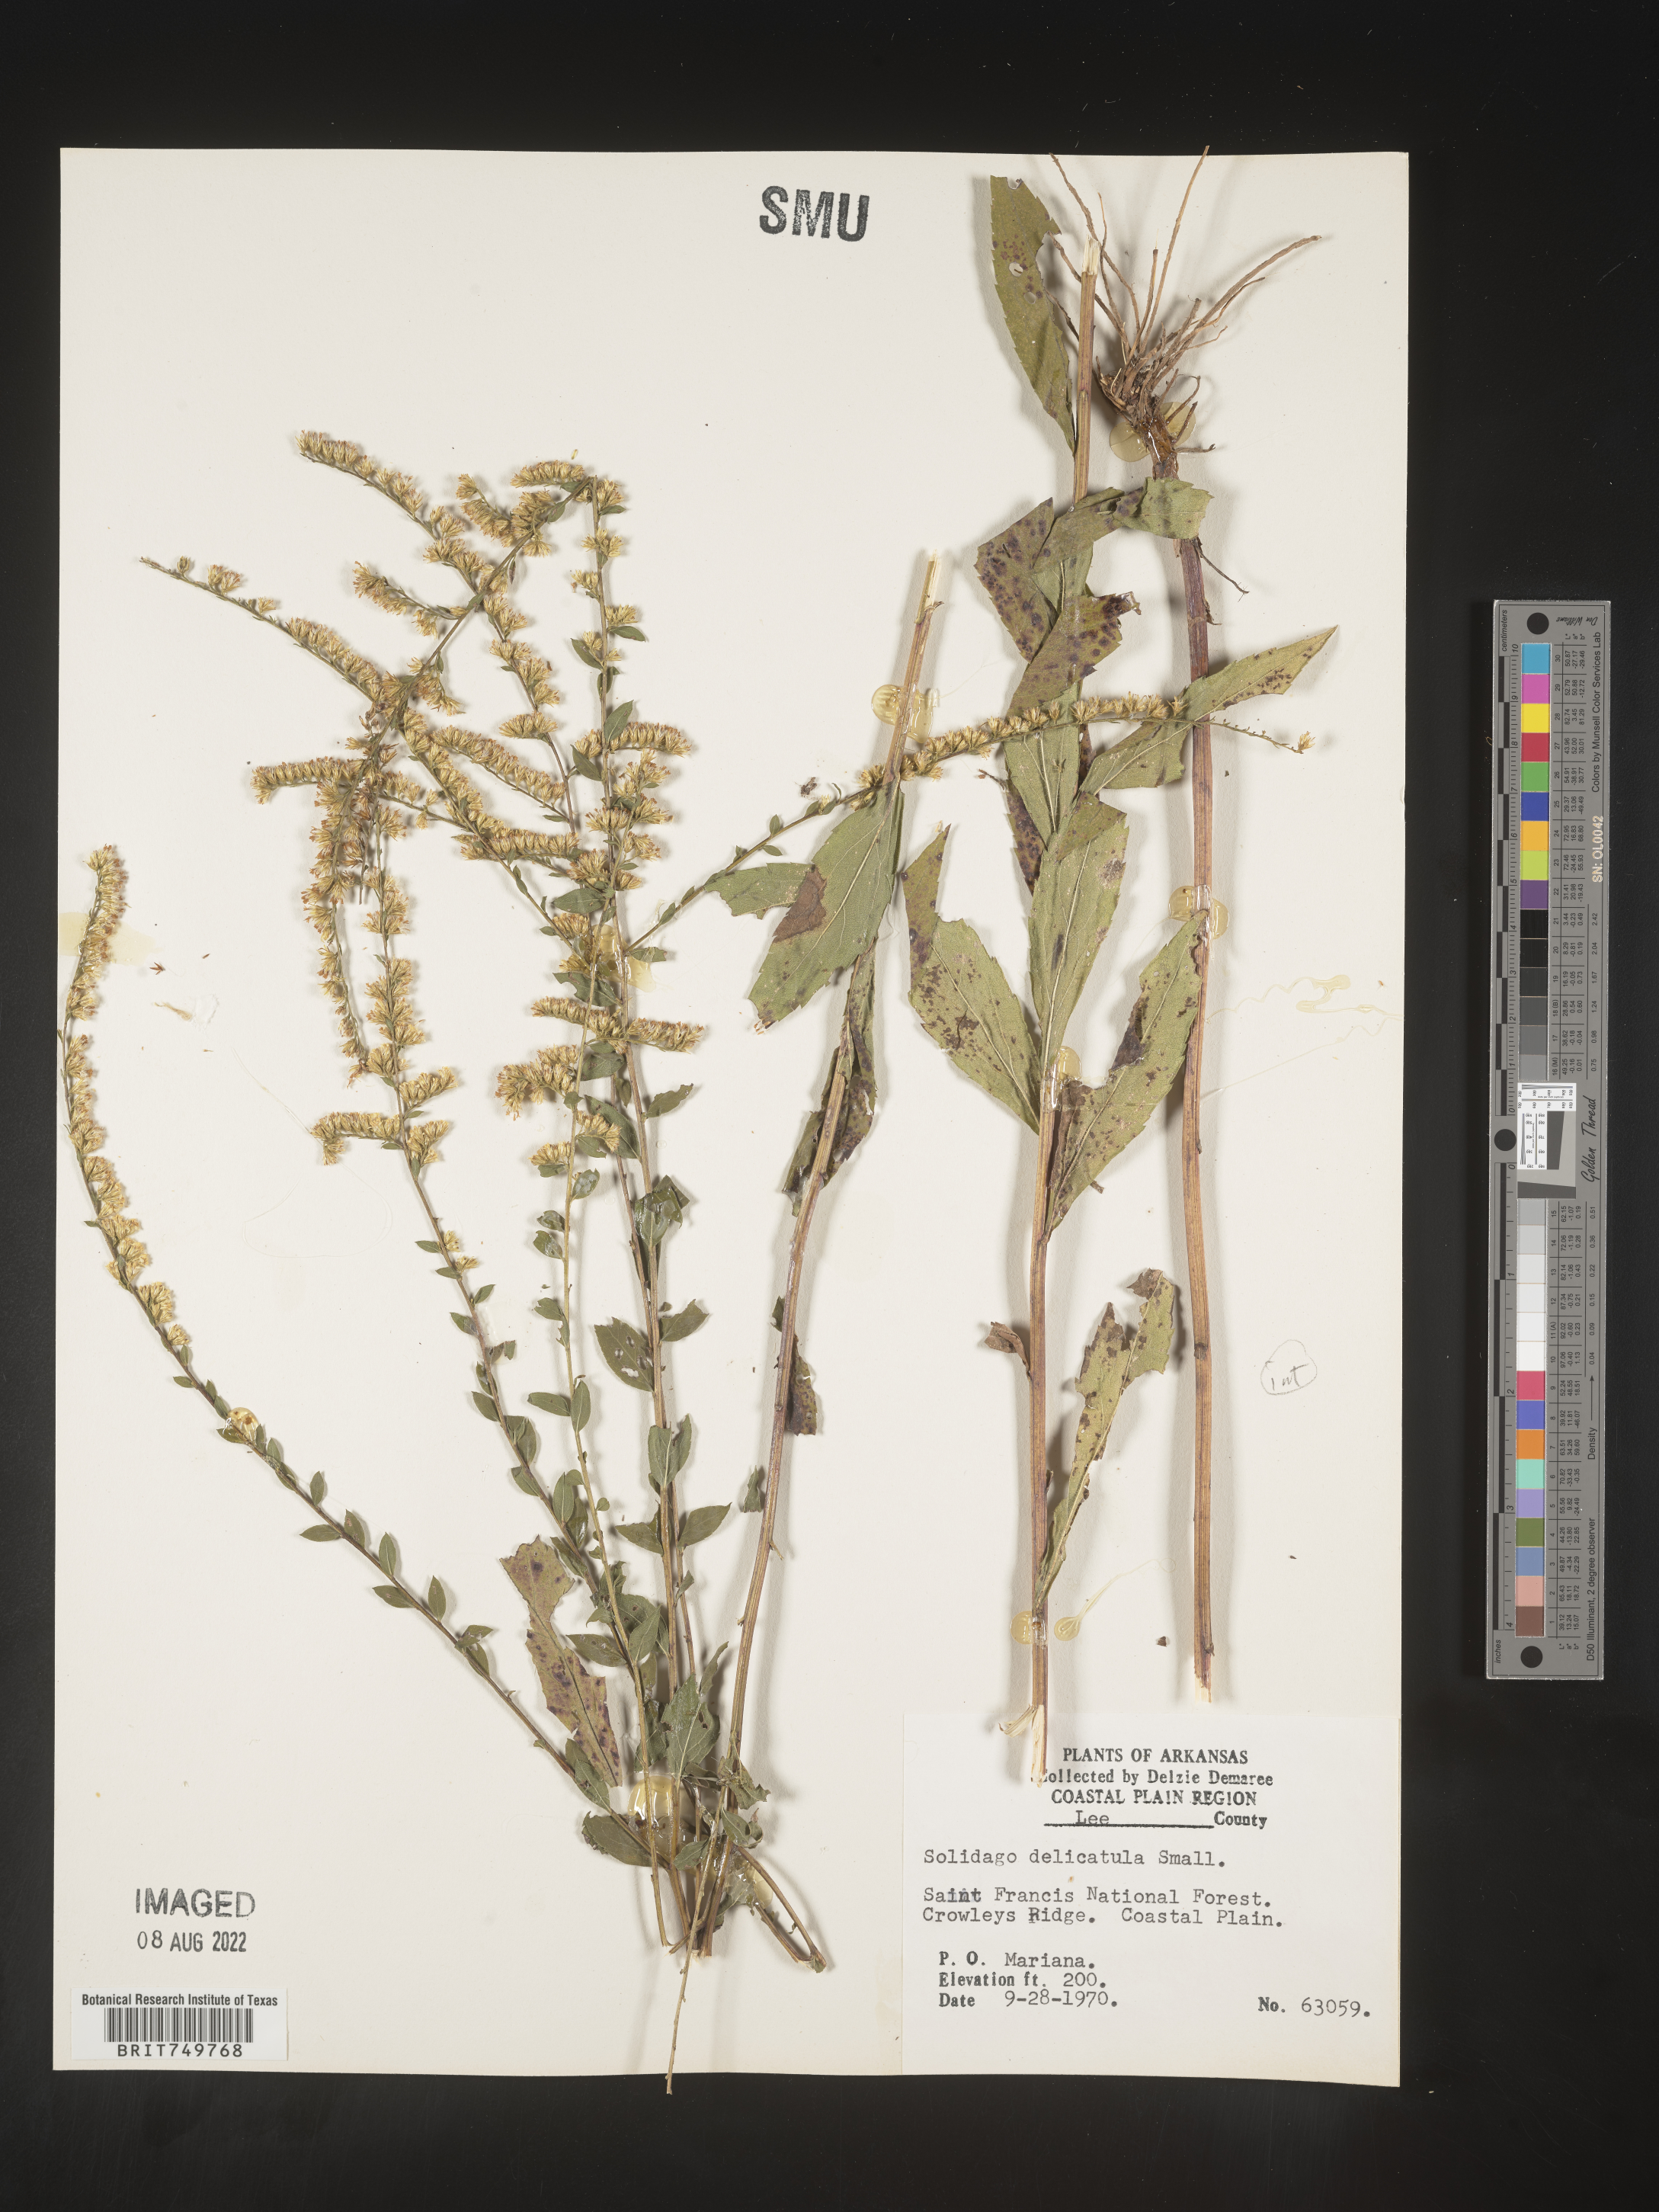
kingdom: Plantae
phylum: Tracheophyta
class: Magnoliopsida
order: Asterales
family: Asteraceae
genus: Solidago
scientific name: Solidago ulmifolia
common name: Elm-leaf goldenrod
